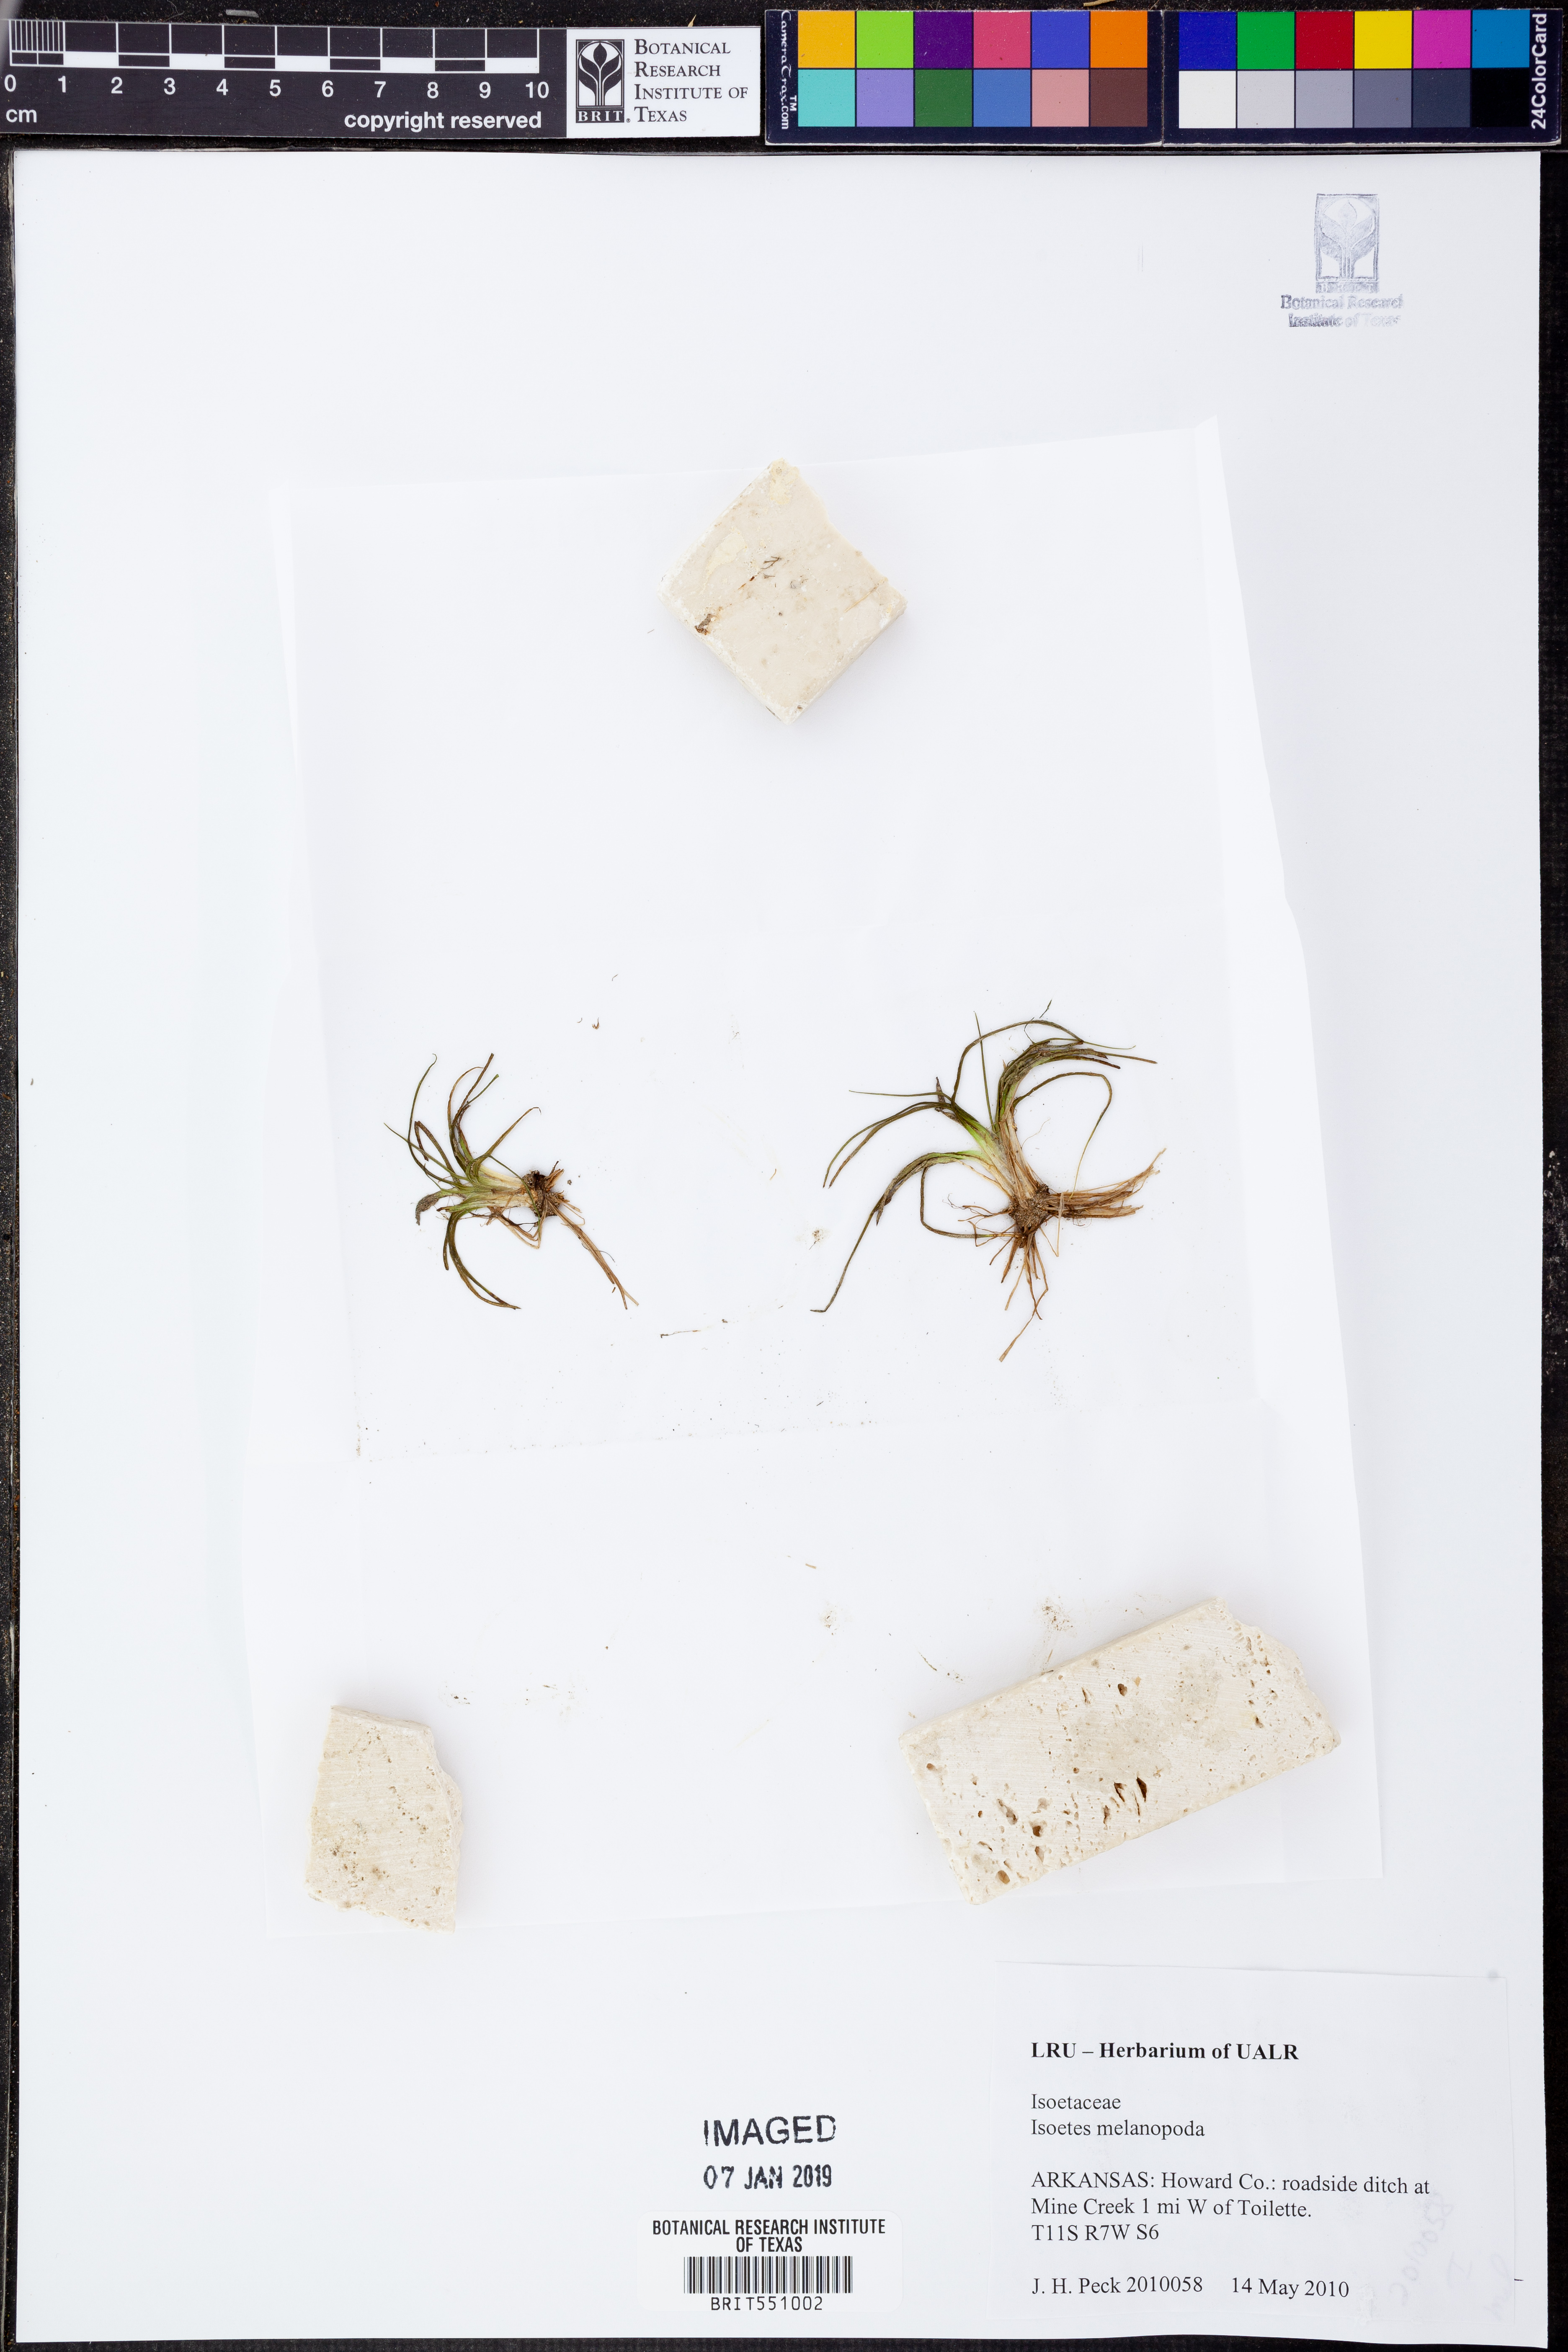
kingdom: Plantae
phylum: Tracheophyta
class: Lycopodiopsida
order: Isoetales
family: Isoetaceae
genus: Isoetes
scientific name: Isoetes melanopoda
